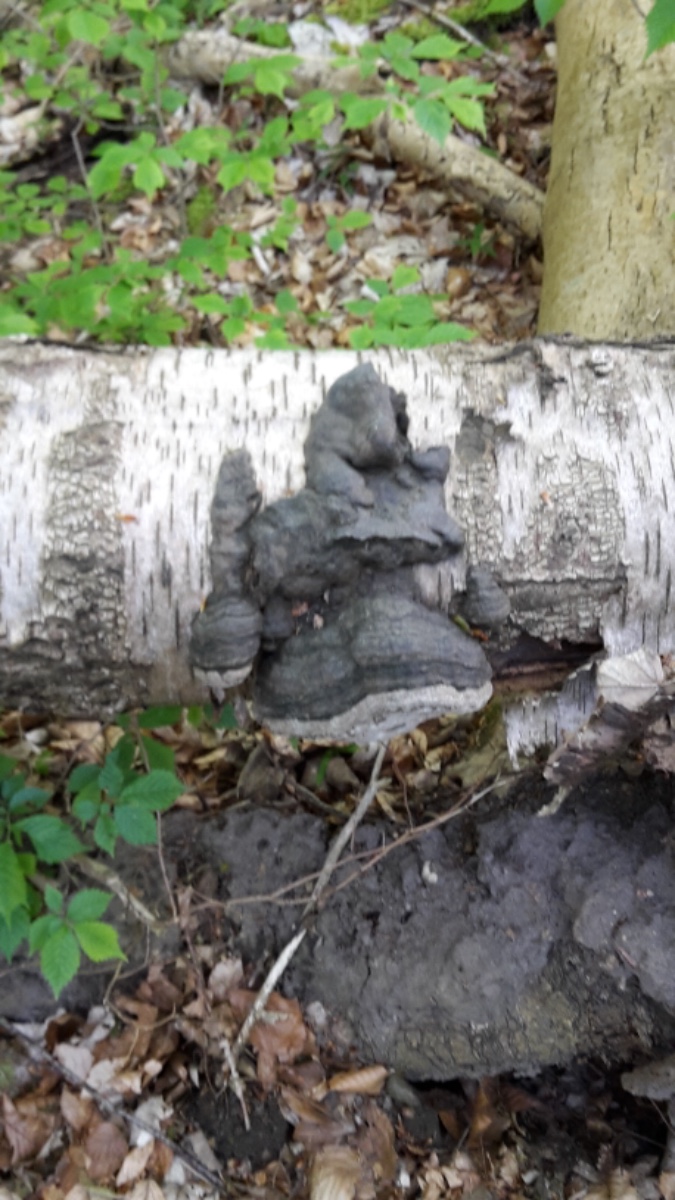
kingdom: Fungi
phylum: Basidiomycota
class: Agaricomycetes
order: Polyporales
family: Polyporaceae
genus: Fomes
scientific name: Fomes fomentarius
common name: tøndersvamp
